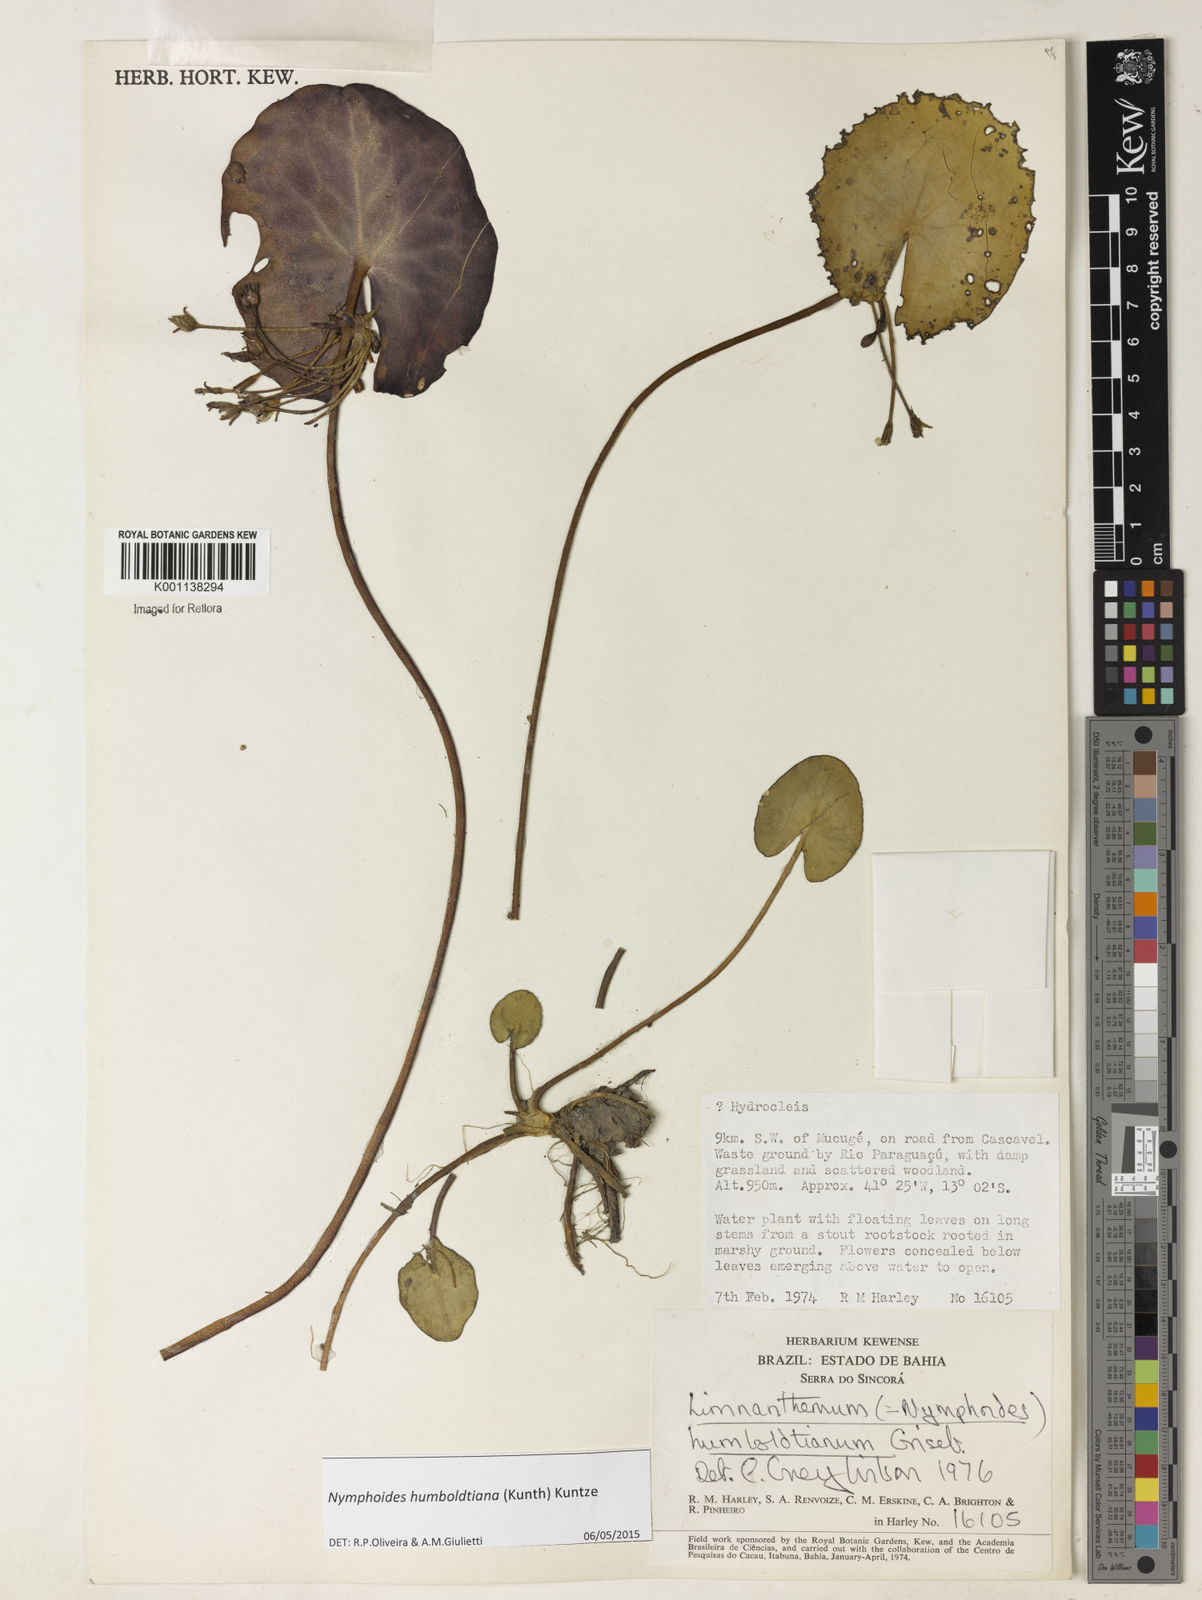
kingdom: Plantae
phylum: Tracheophyta
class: Magnoliopsida
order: Asterales
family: Menyanthaceae
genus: Nymphoides
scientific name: Nymphoides
